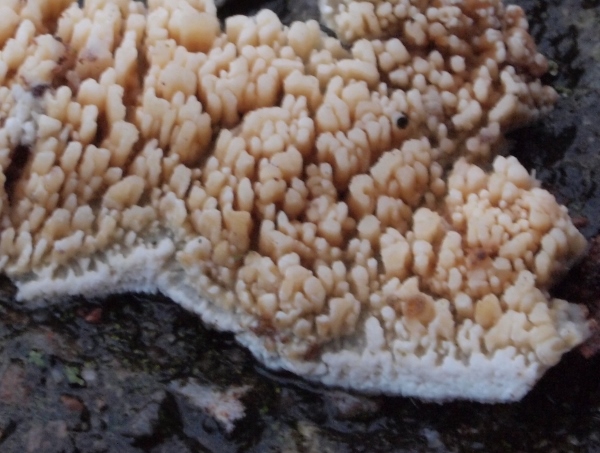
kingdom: Fungi
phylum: Basidiomycota
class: Agaricomycetes
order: Hymenochaetales
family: Schizoporaceae
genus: Xylodon
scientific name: Xylodon radula
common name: grovtandet kalkskind
